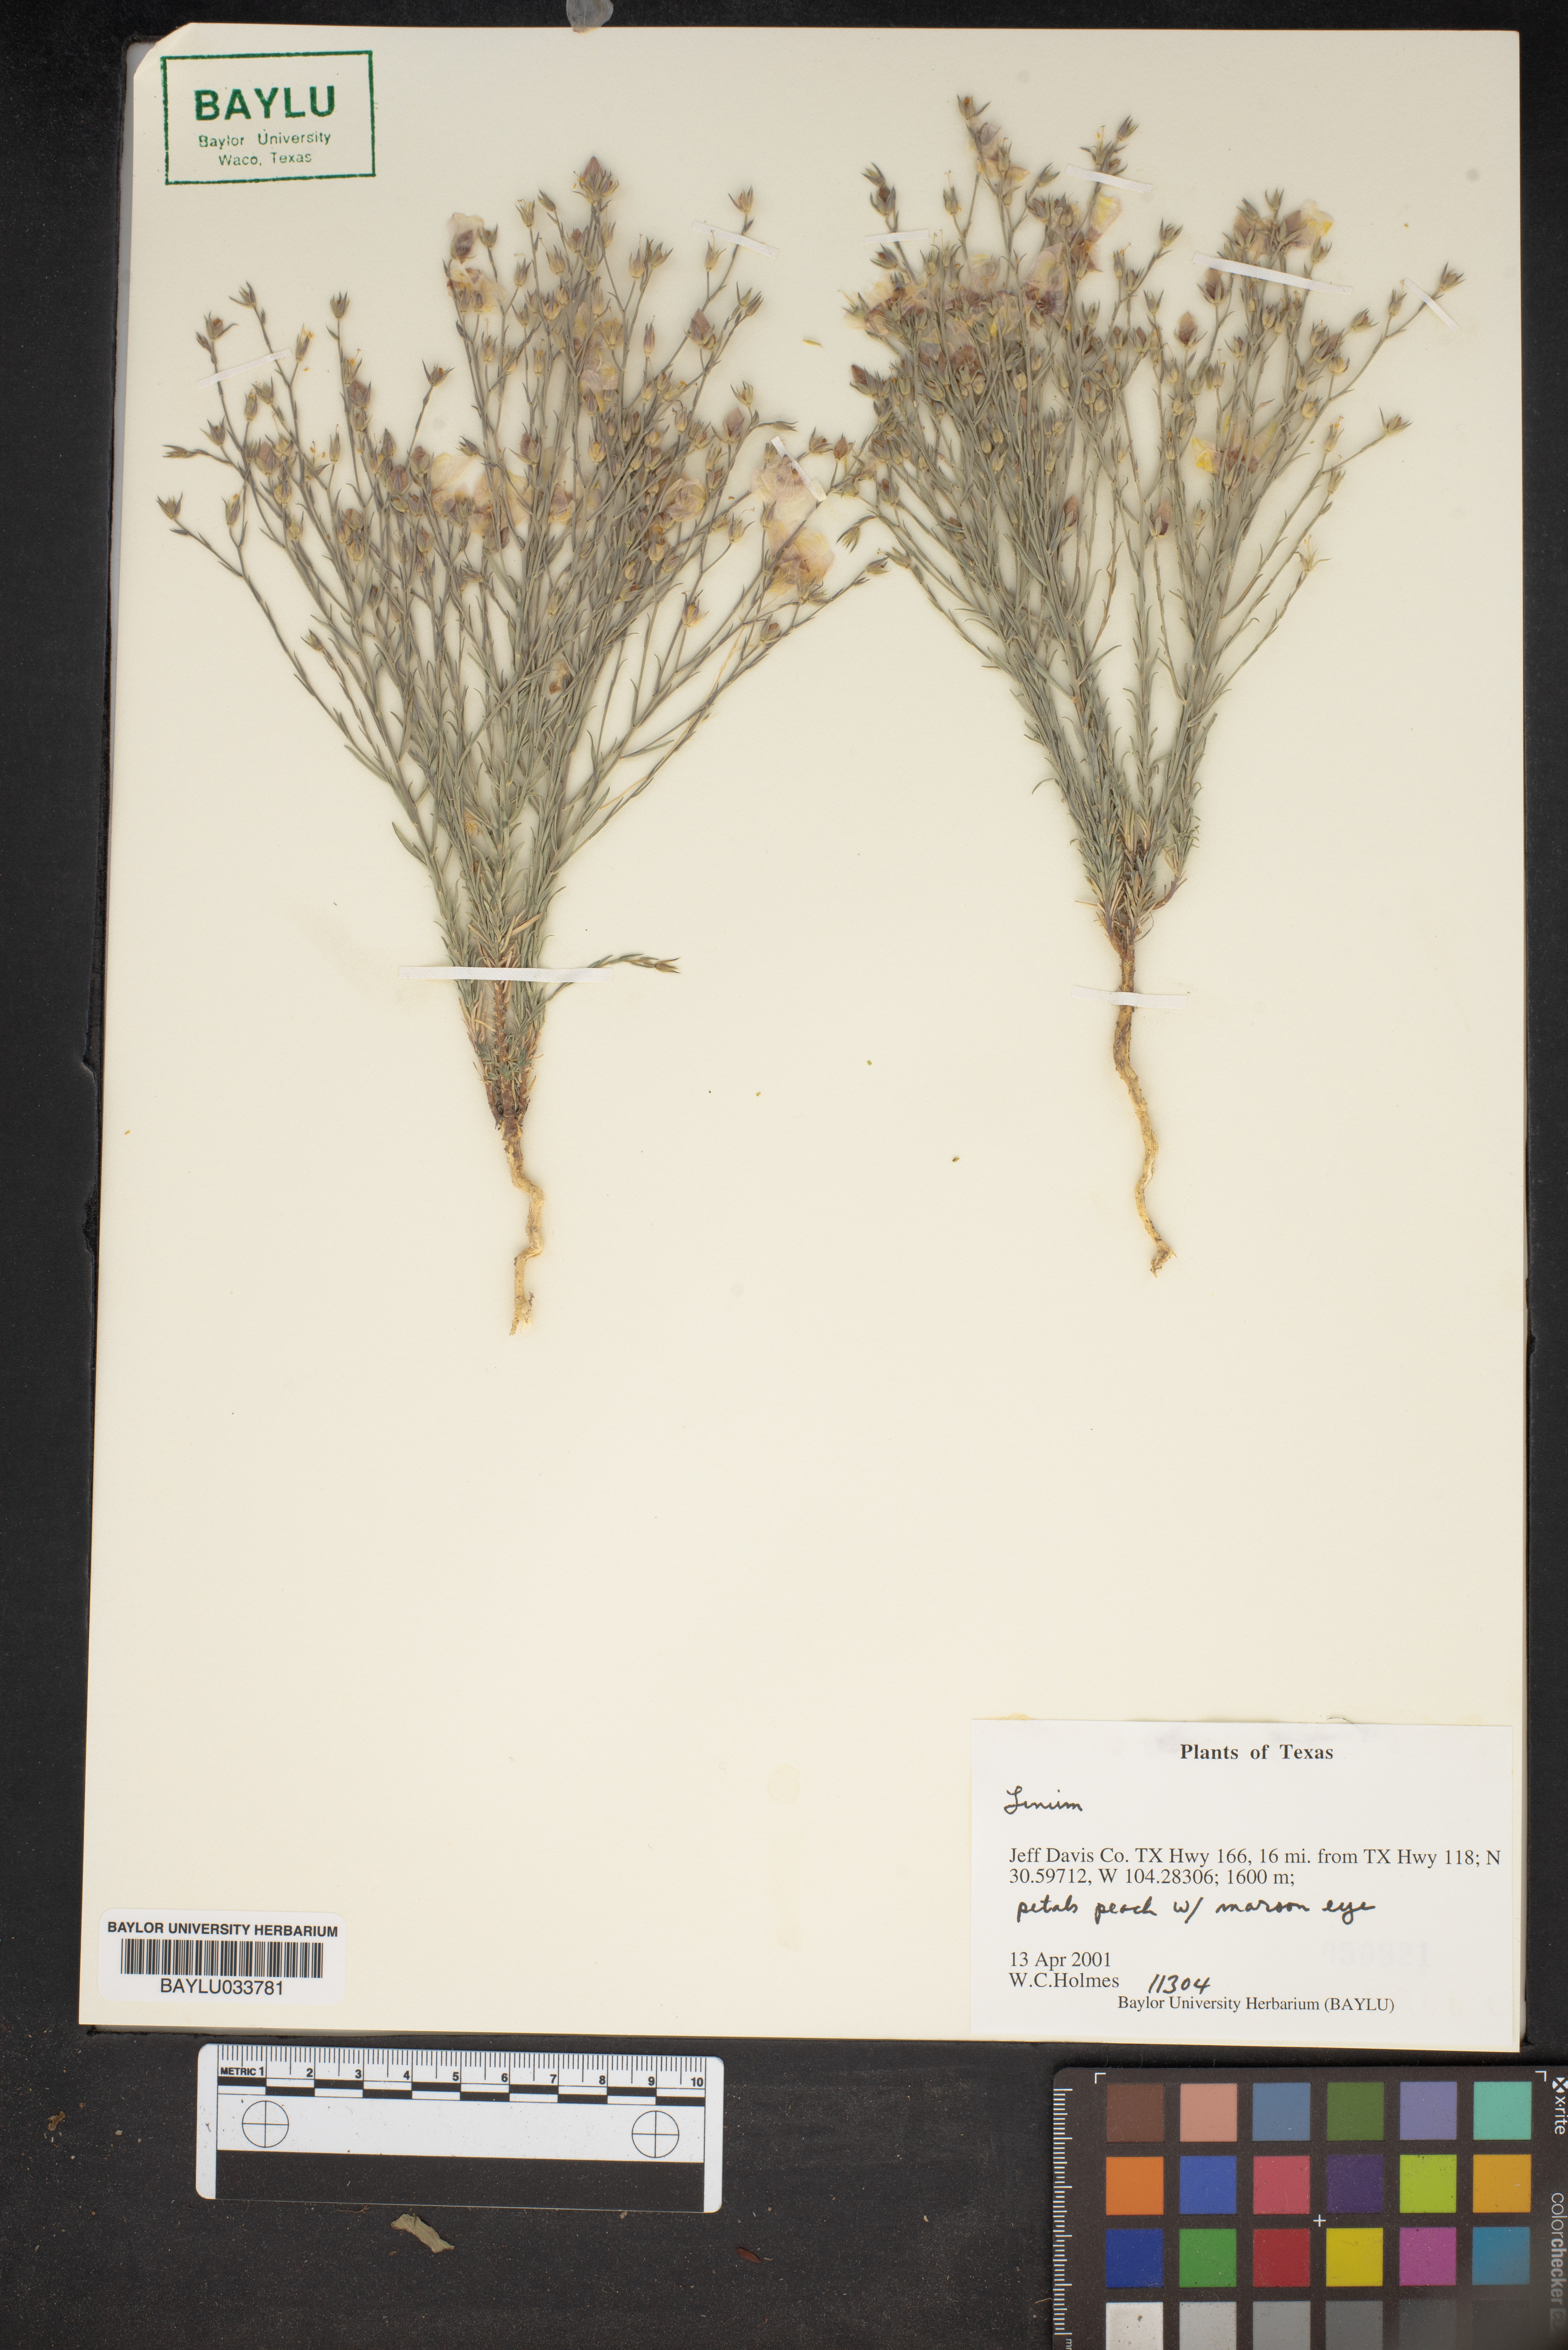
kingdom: Plantae
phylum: Tracheophyta
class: Magnoliopsida
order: Malpighiales
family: Linaceae
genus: Linum
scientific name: Linum
